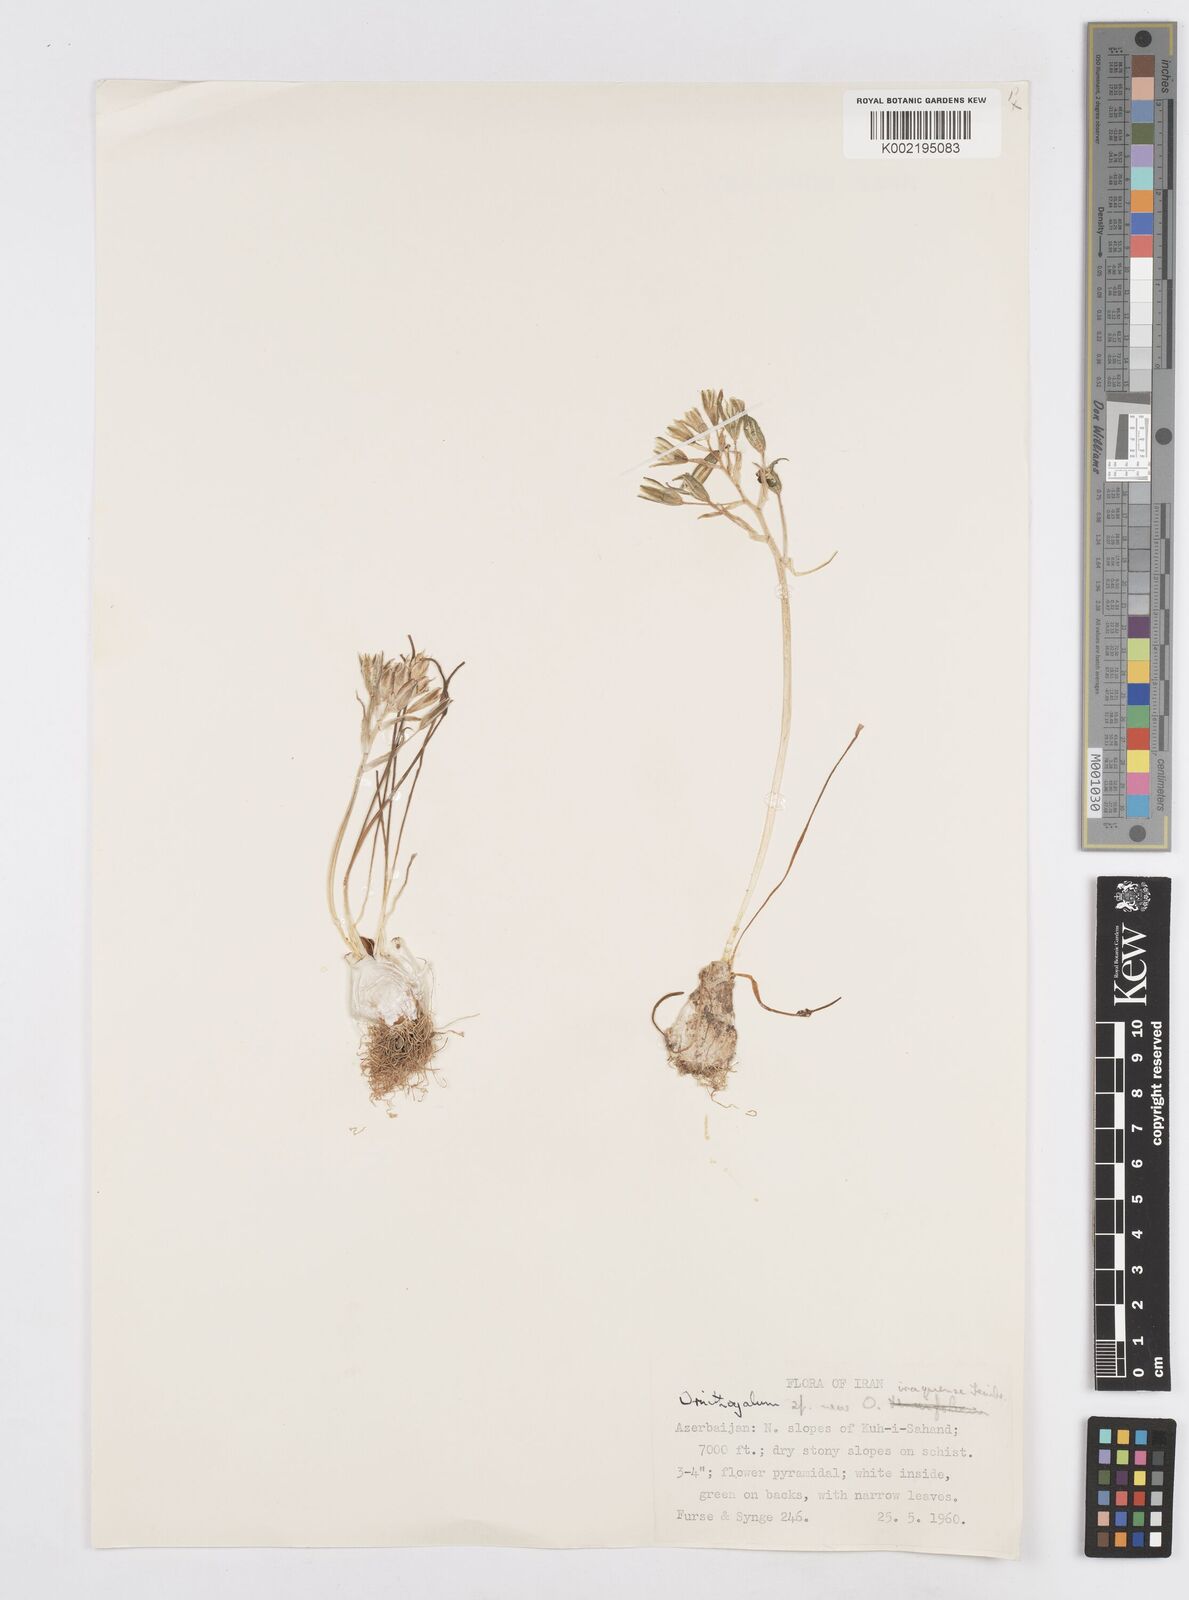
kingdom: Plantae
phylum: Tracheophyta
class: Liliopsida
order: Asparagales
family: Asparagaceae
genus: Ornithogalum
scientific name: Ornithogalum iraqense
